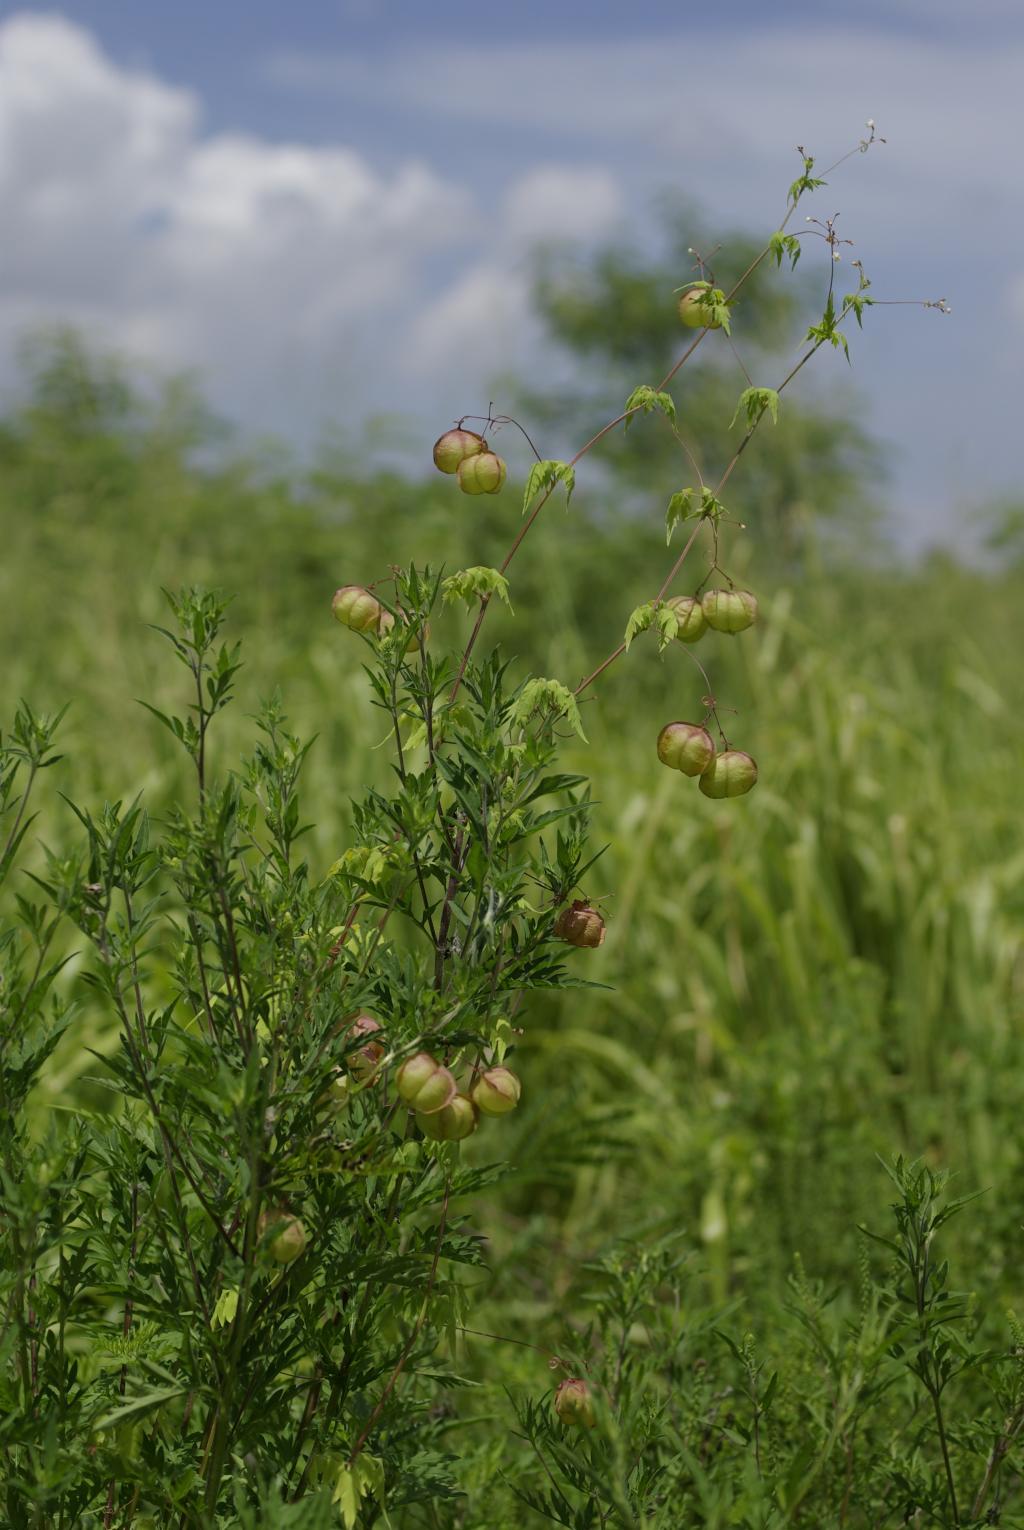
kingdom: Plantae
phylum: Tracheophyta
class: Magnoliopsida
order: Sapindales
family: Sapindaceae
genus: Cardiospermum
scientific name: Cardiospermum halicacabum
